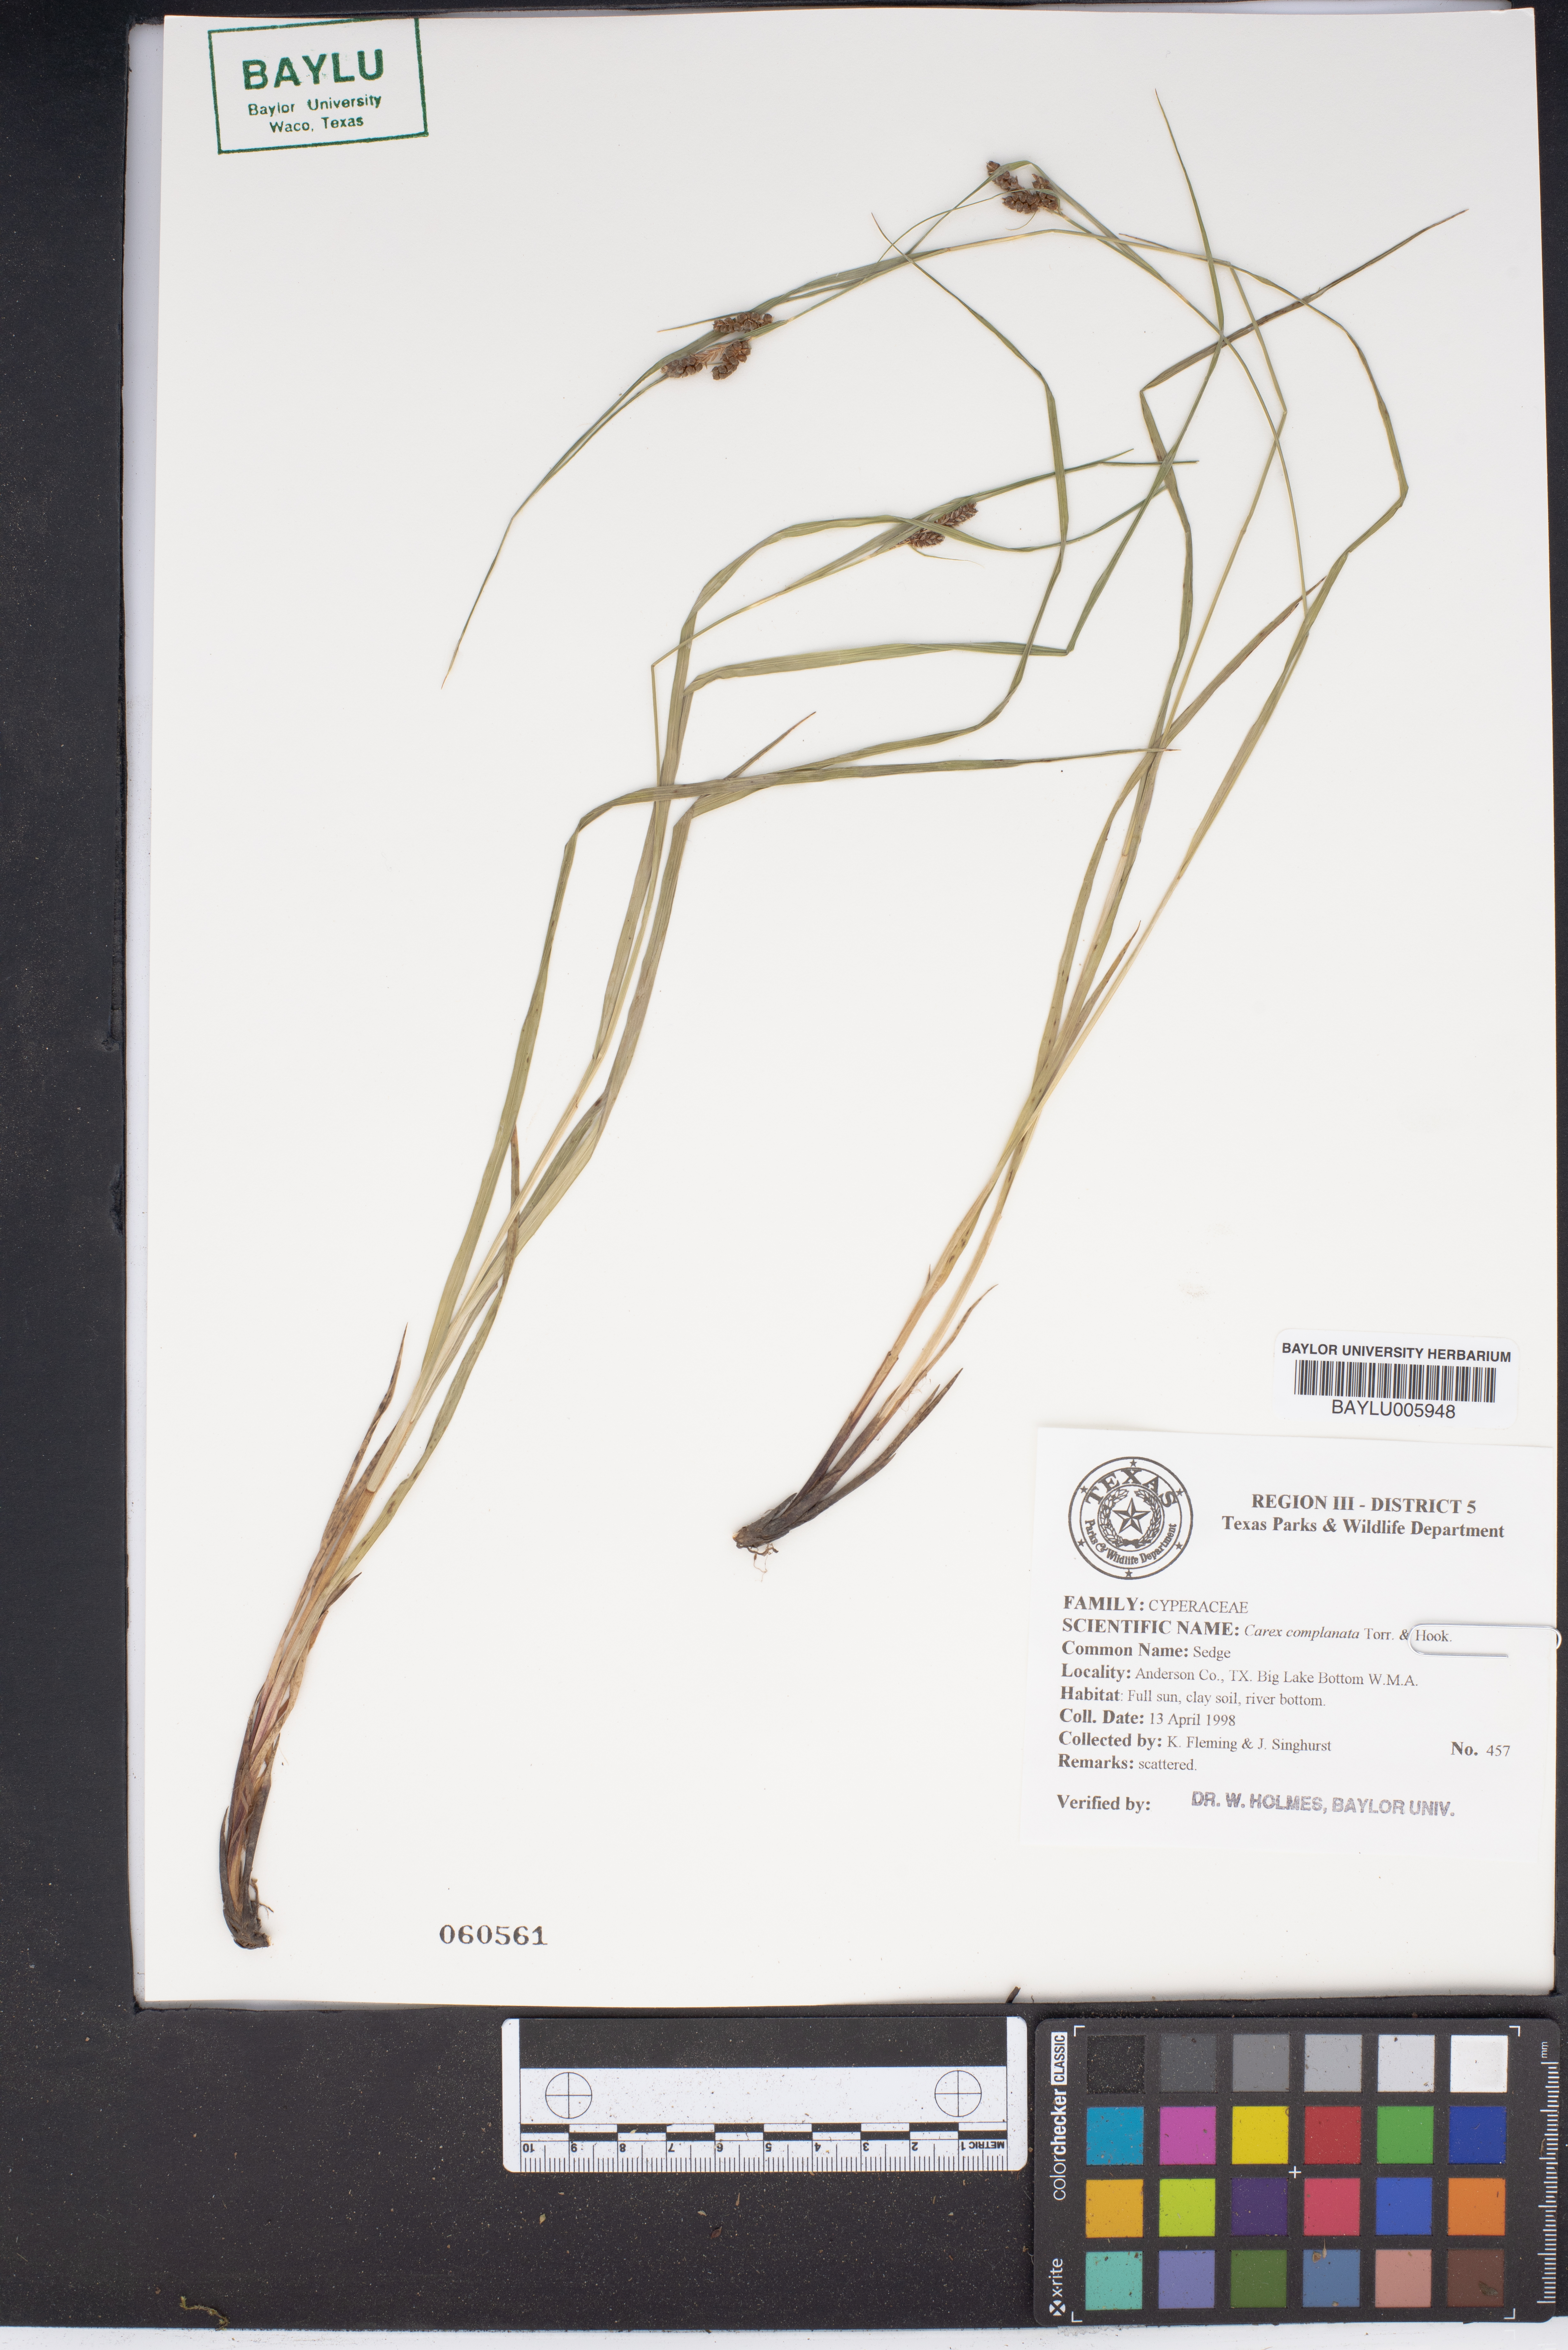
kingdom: Plantae
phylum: Tracheophyta
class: Liliopsida
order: Poales
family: Cyperaceae
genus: Carex
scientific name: Carex complanata
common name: Hirsute sedge
